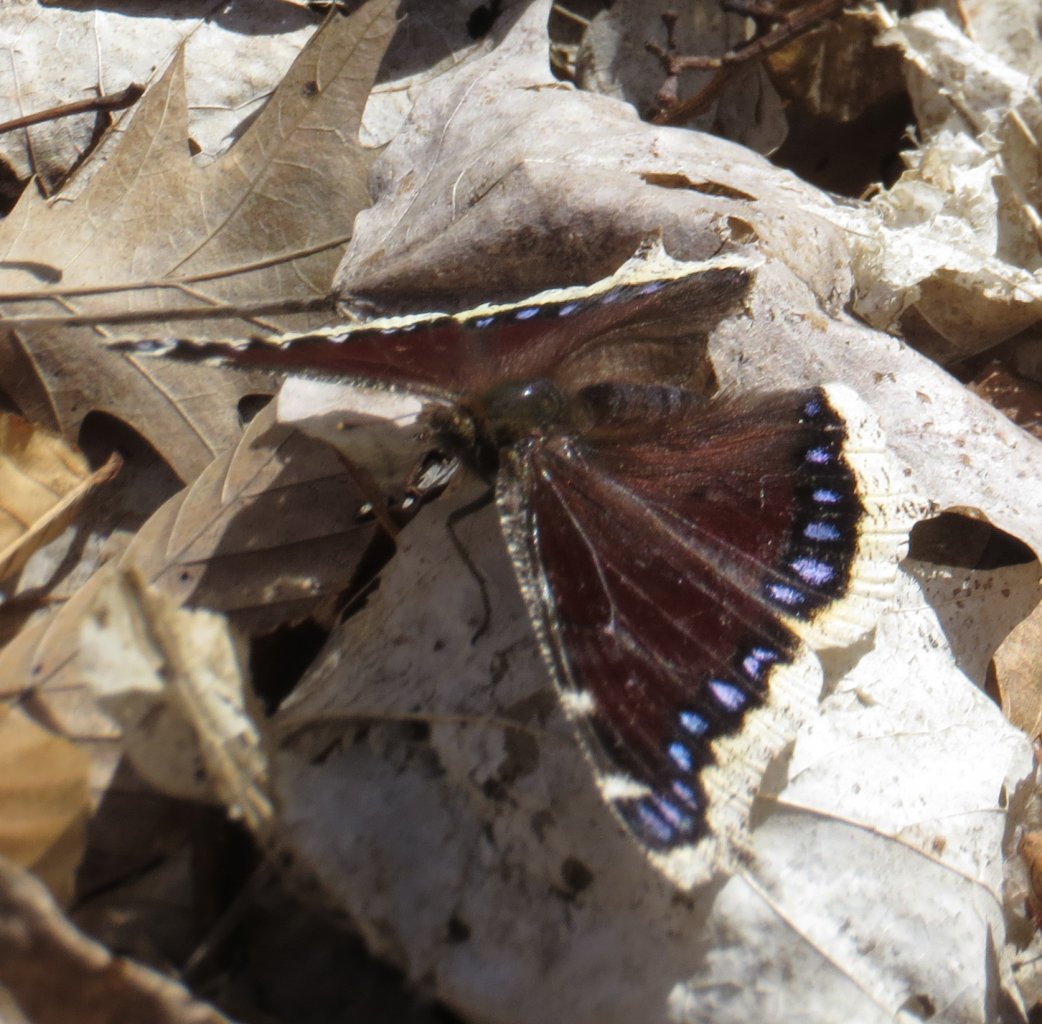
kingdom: Animalia
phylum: Arthropoda
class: Insecta
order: Lepidoptera
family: Nymphalidae
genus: Nymphalis
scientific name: Nymphalis antiopa
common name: Mourning Cloak
